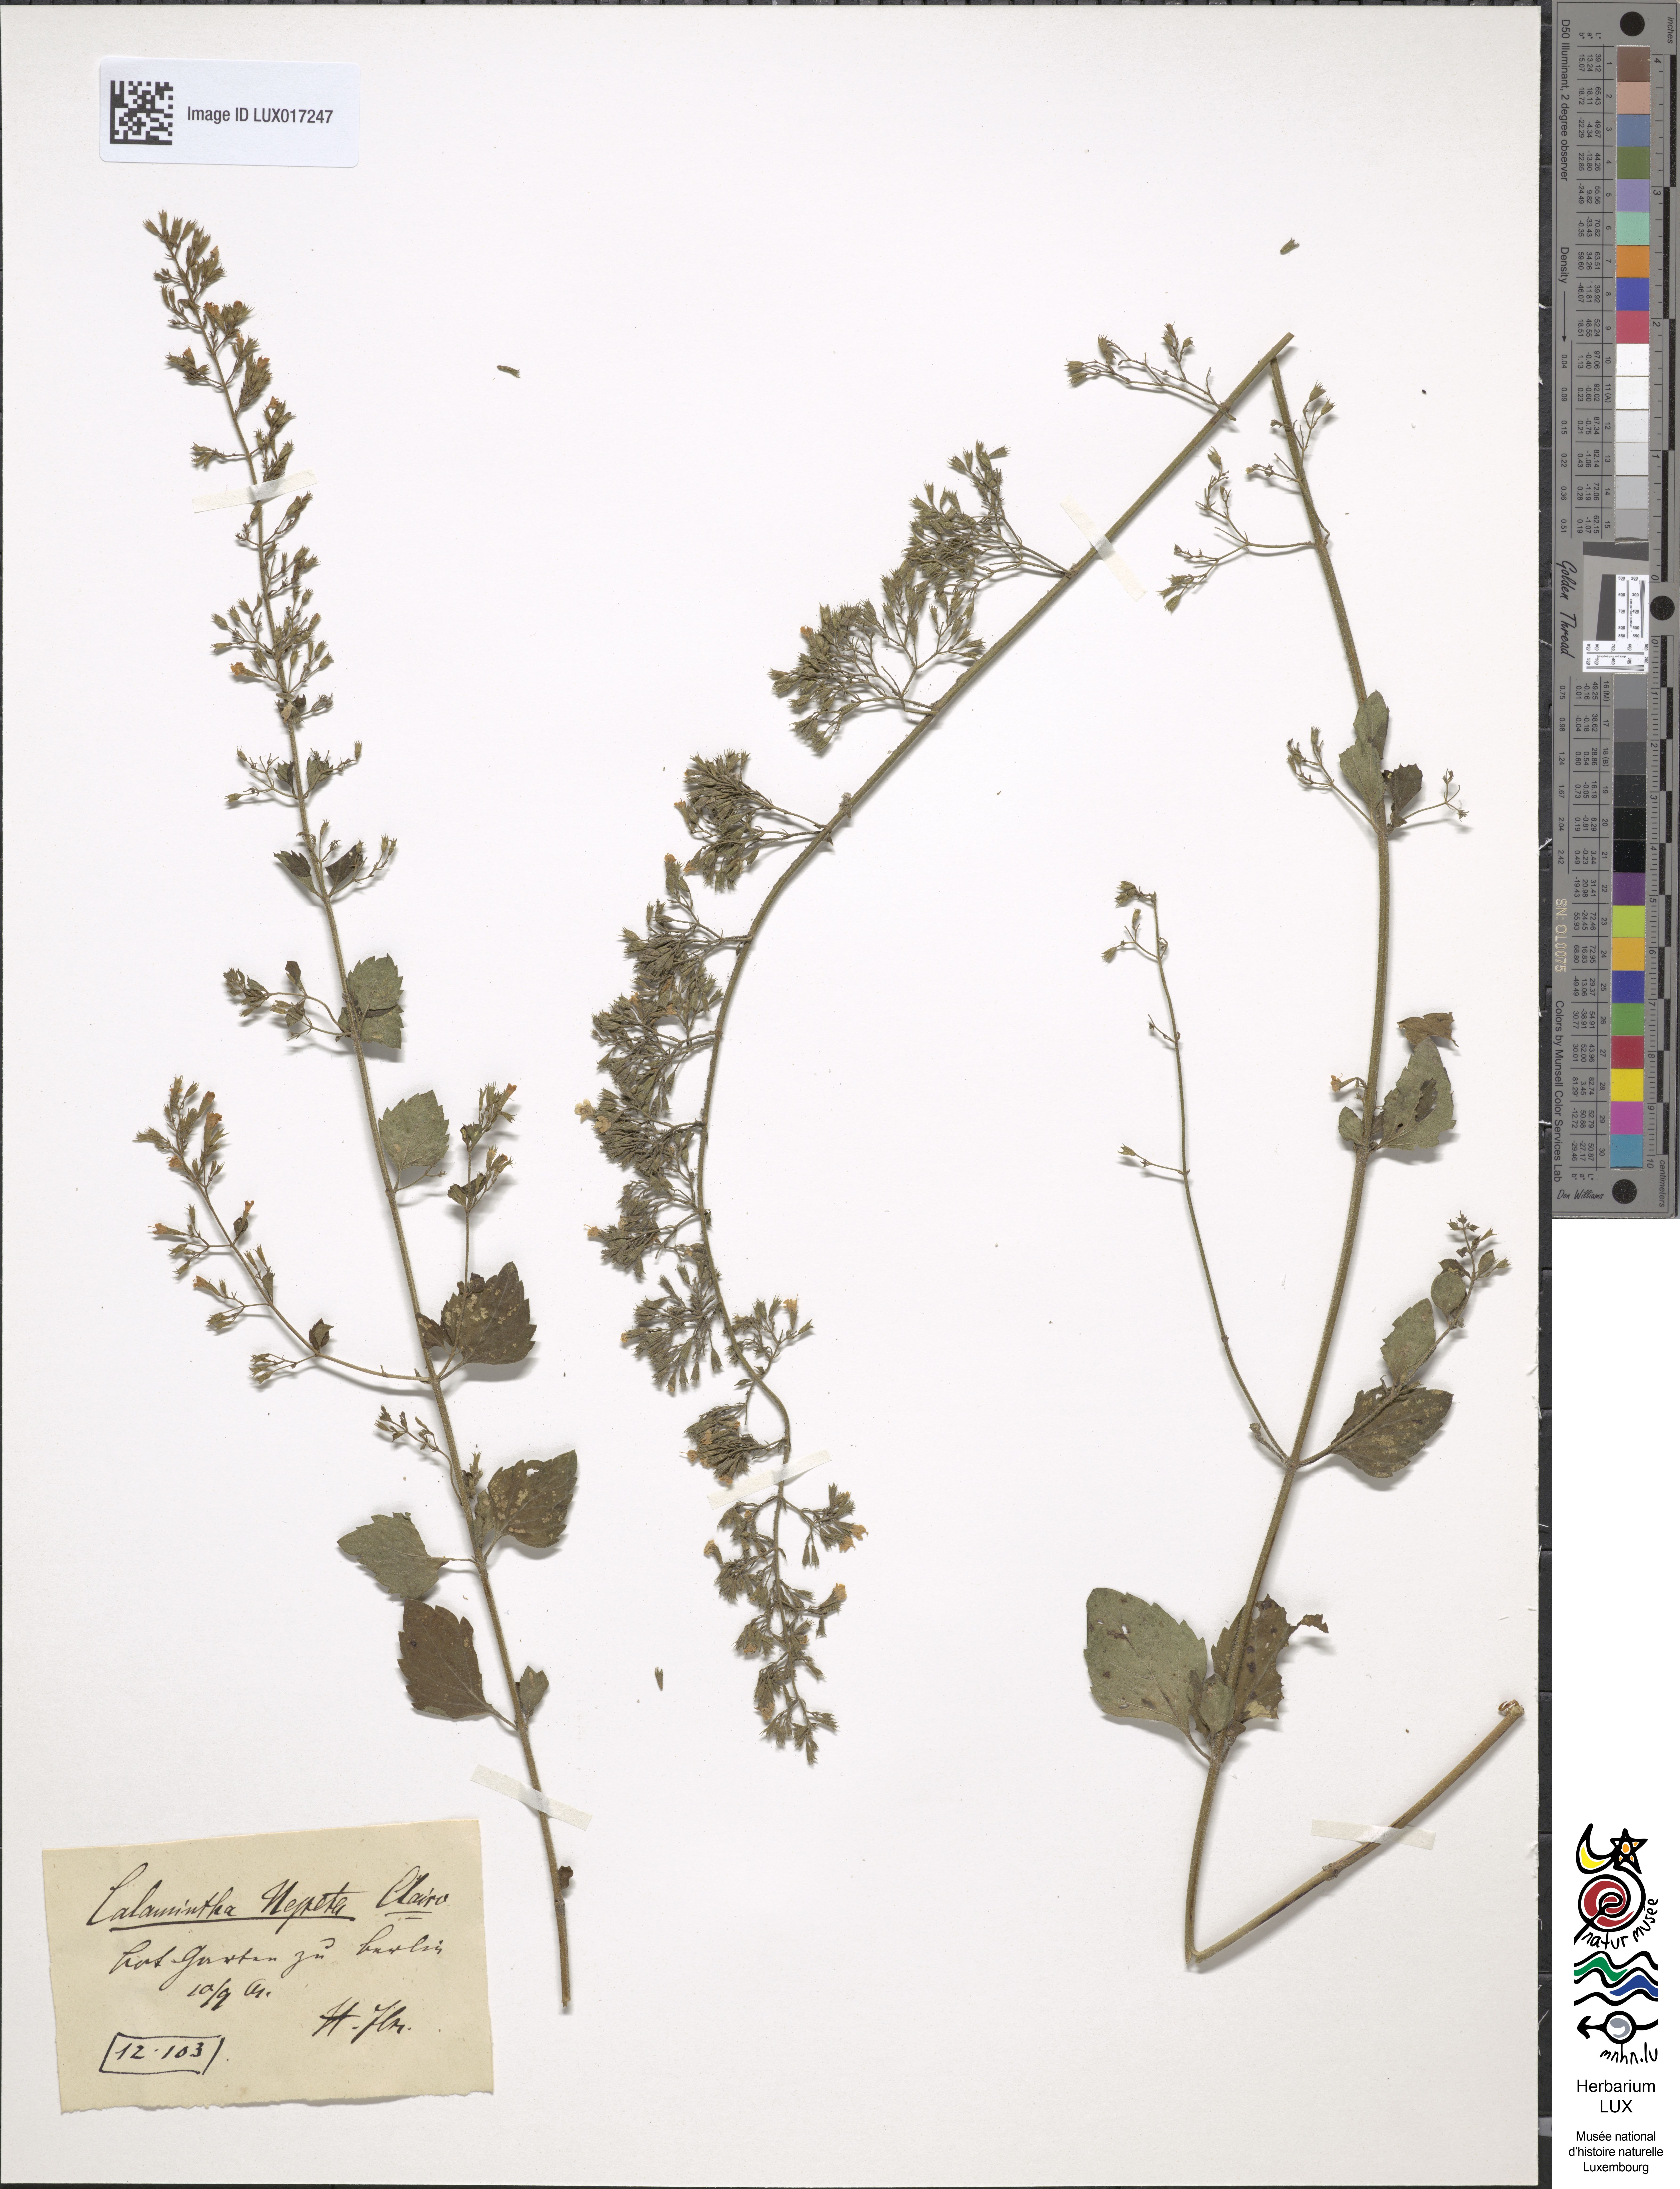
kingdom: Plantae
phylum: Tracheophyta
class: Magnoliopsida
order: Lamiales
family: Lamiaceae
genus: Clinopodium
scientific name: Clinopodium nepeta
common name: Lesser calamint
